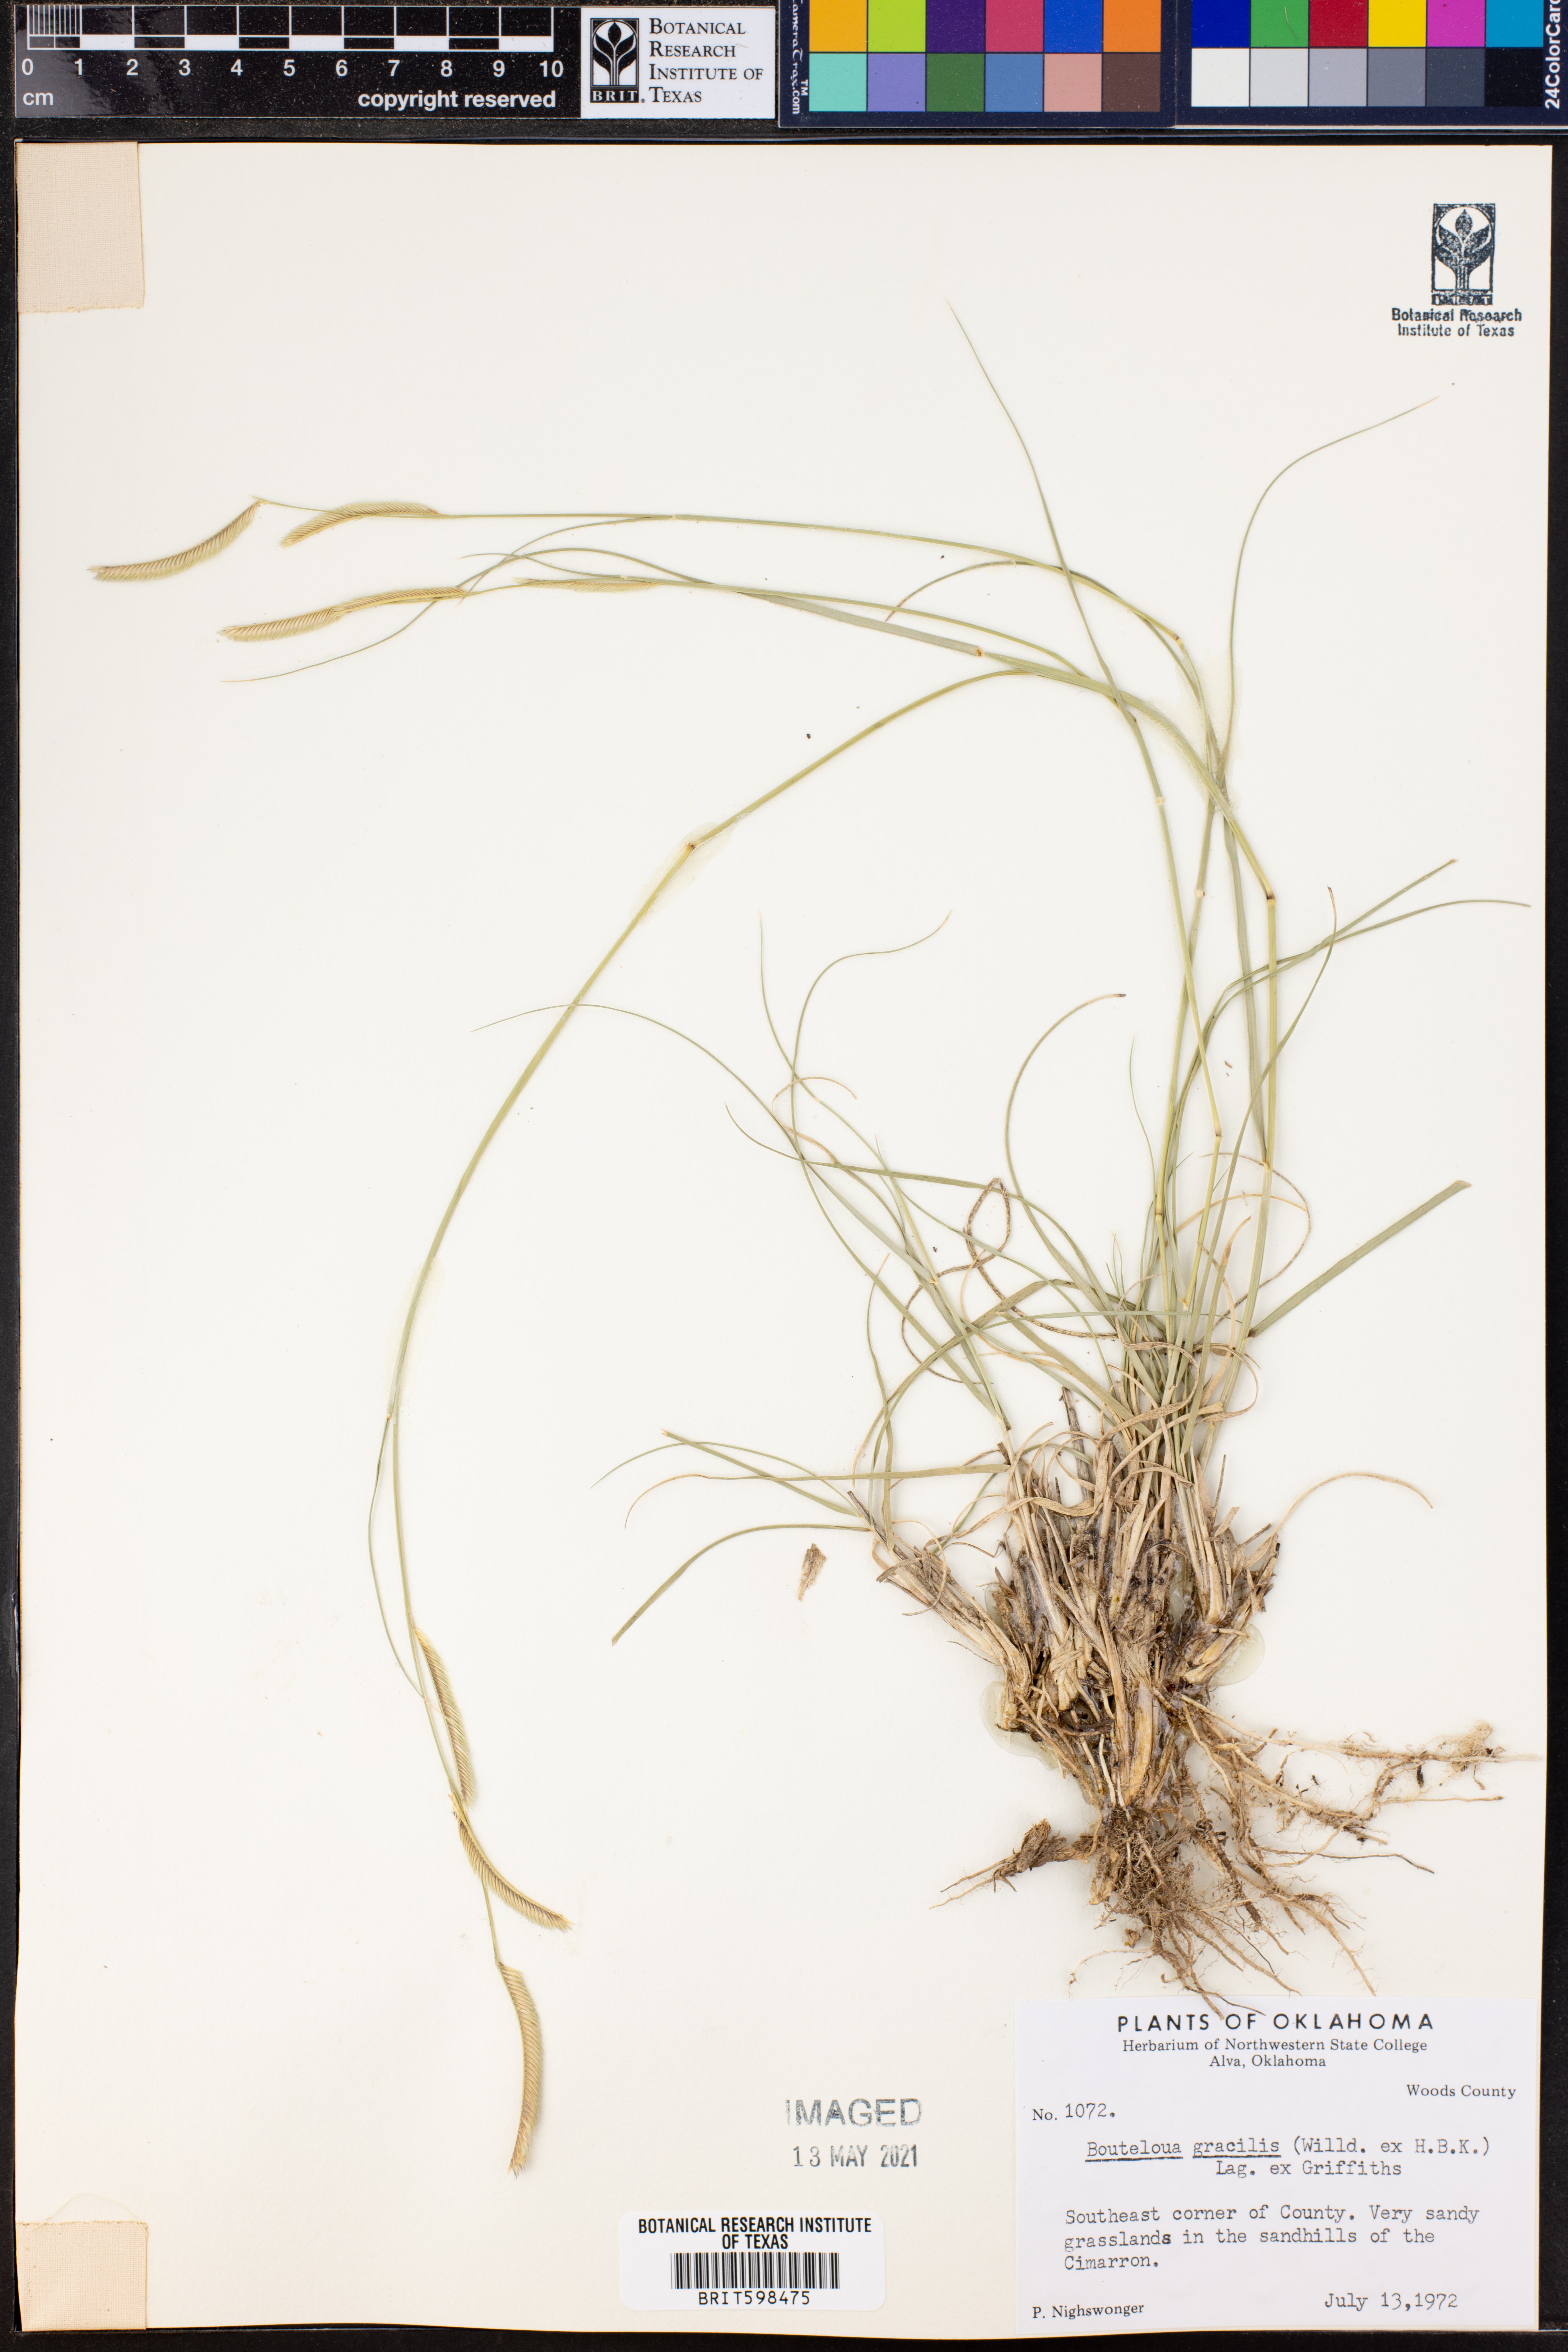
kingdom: Plantae
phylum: Tracheophyta
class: Liliopsida
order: Poales
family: Poaceae
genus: Bouteloua
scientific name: Bouteloua gracilis
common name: Blue grama
